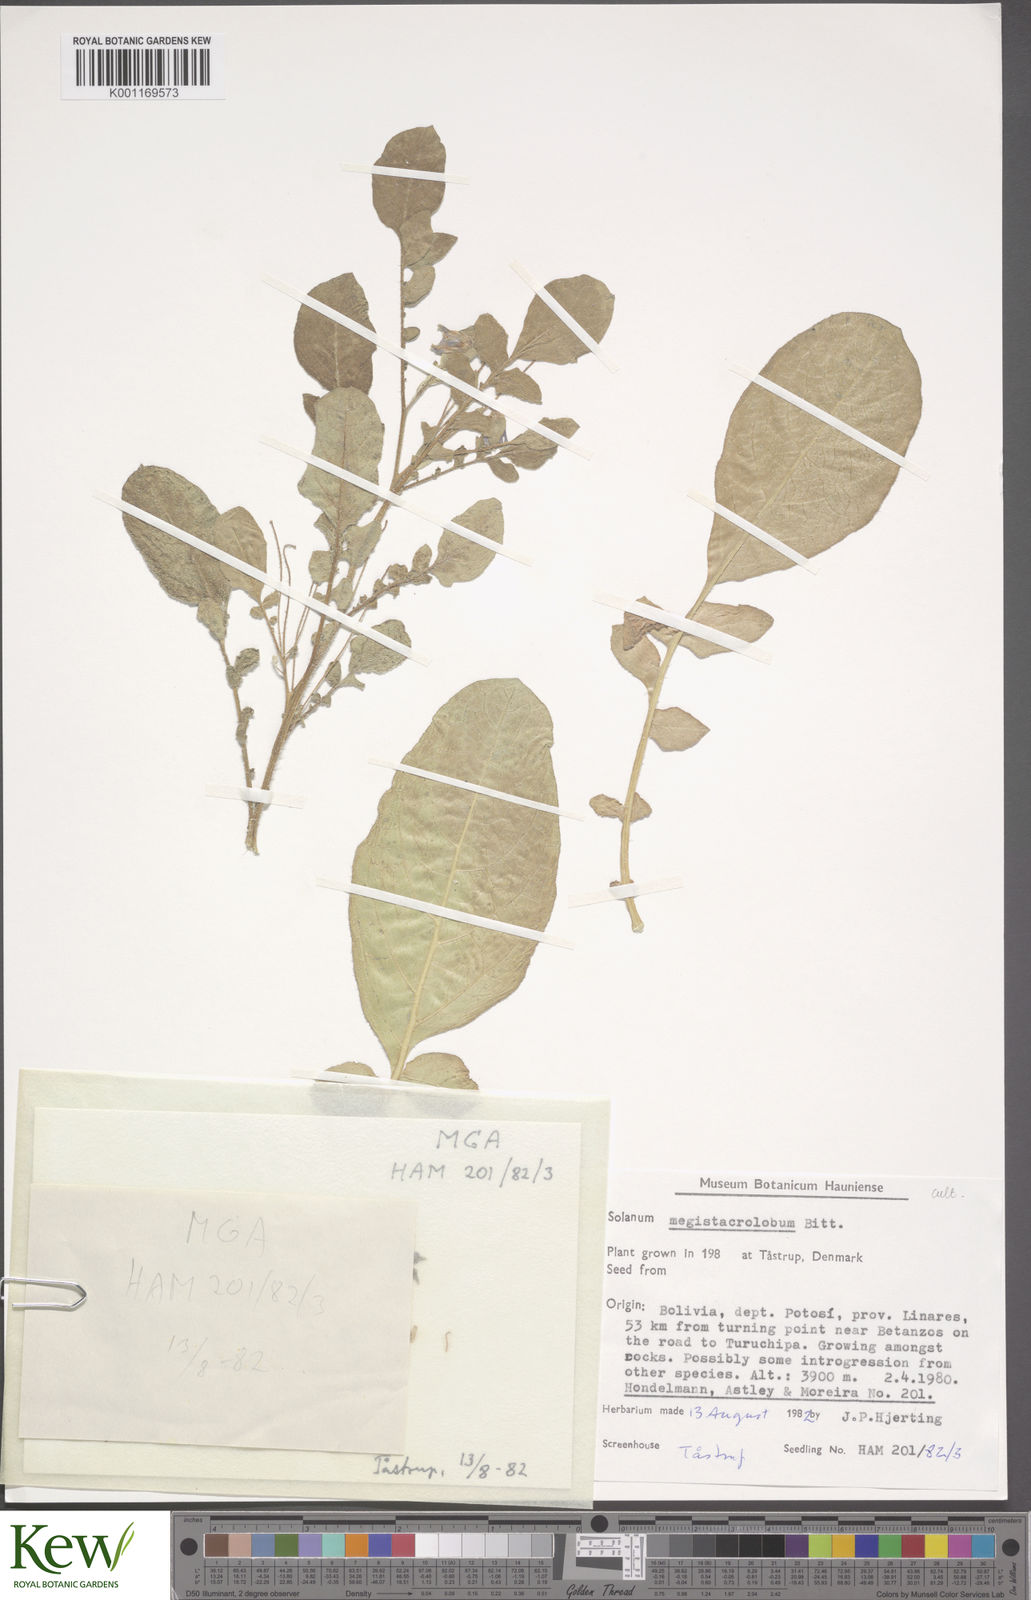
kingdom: Plantae
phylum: Tracheophyta
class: Magnoliopsida
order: Solanales
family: Solanaceae
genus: Solanum
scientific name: Solanum boliviense
